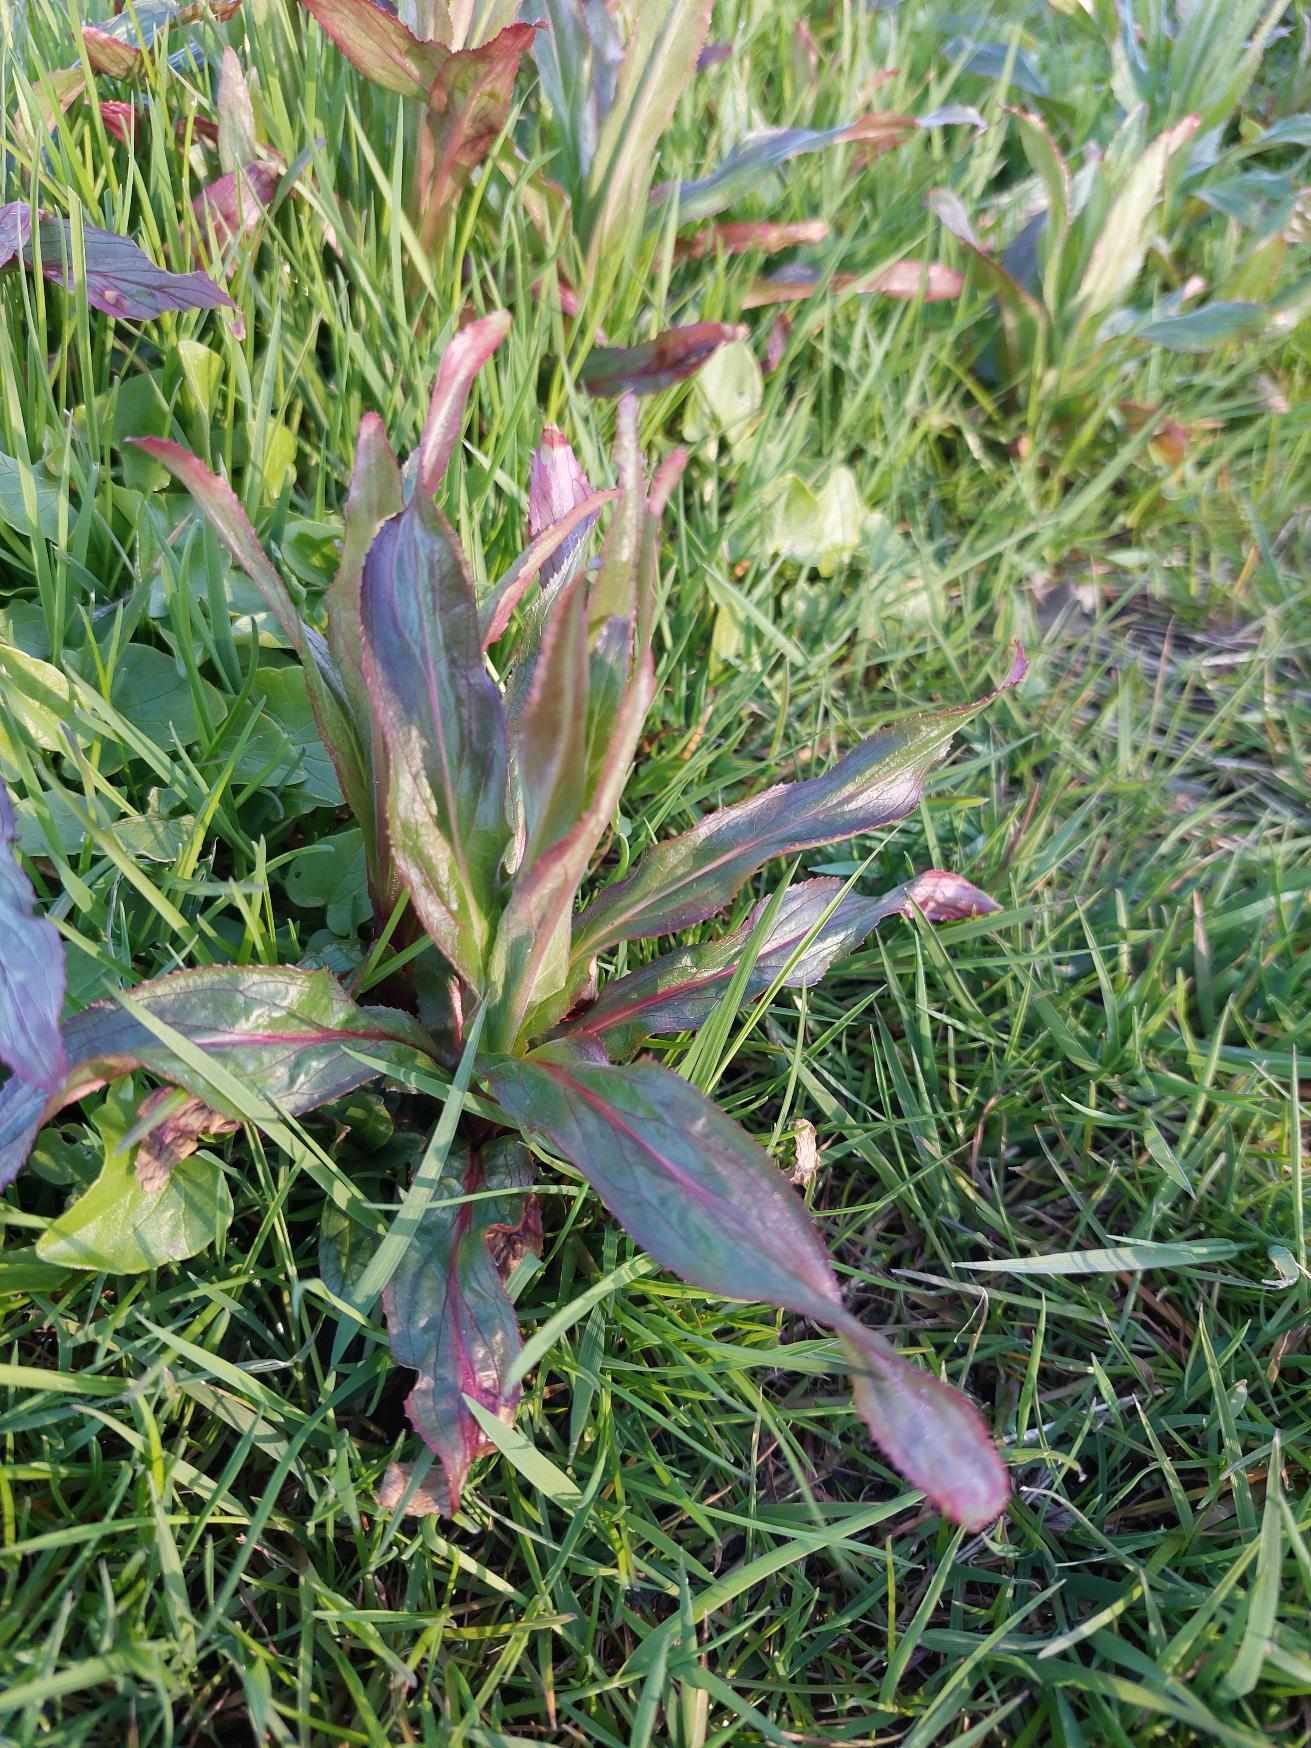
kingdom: Plantae
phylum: Tracheophyta
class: Magnoliopsida
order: Myrtales
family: Onagraceae
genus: Epilobium
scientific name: Epilobium hirsutum
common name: Lådden dueurt
